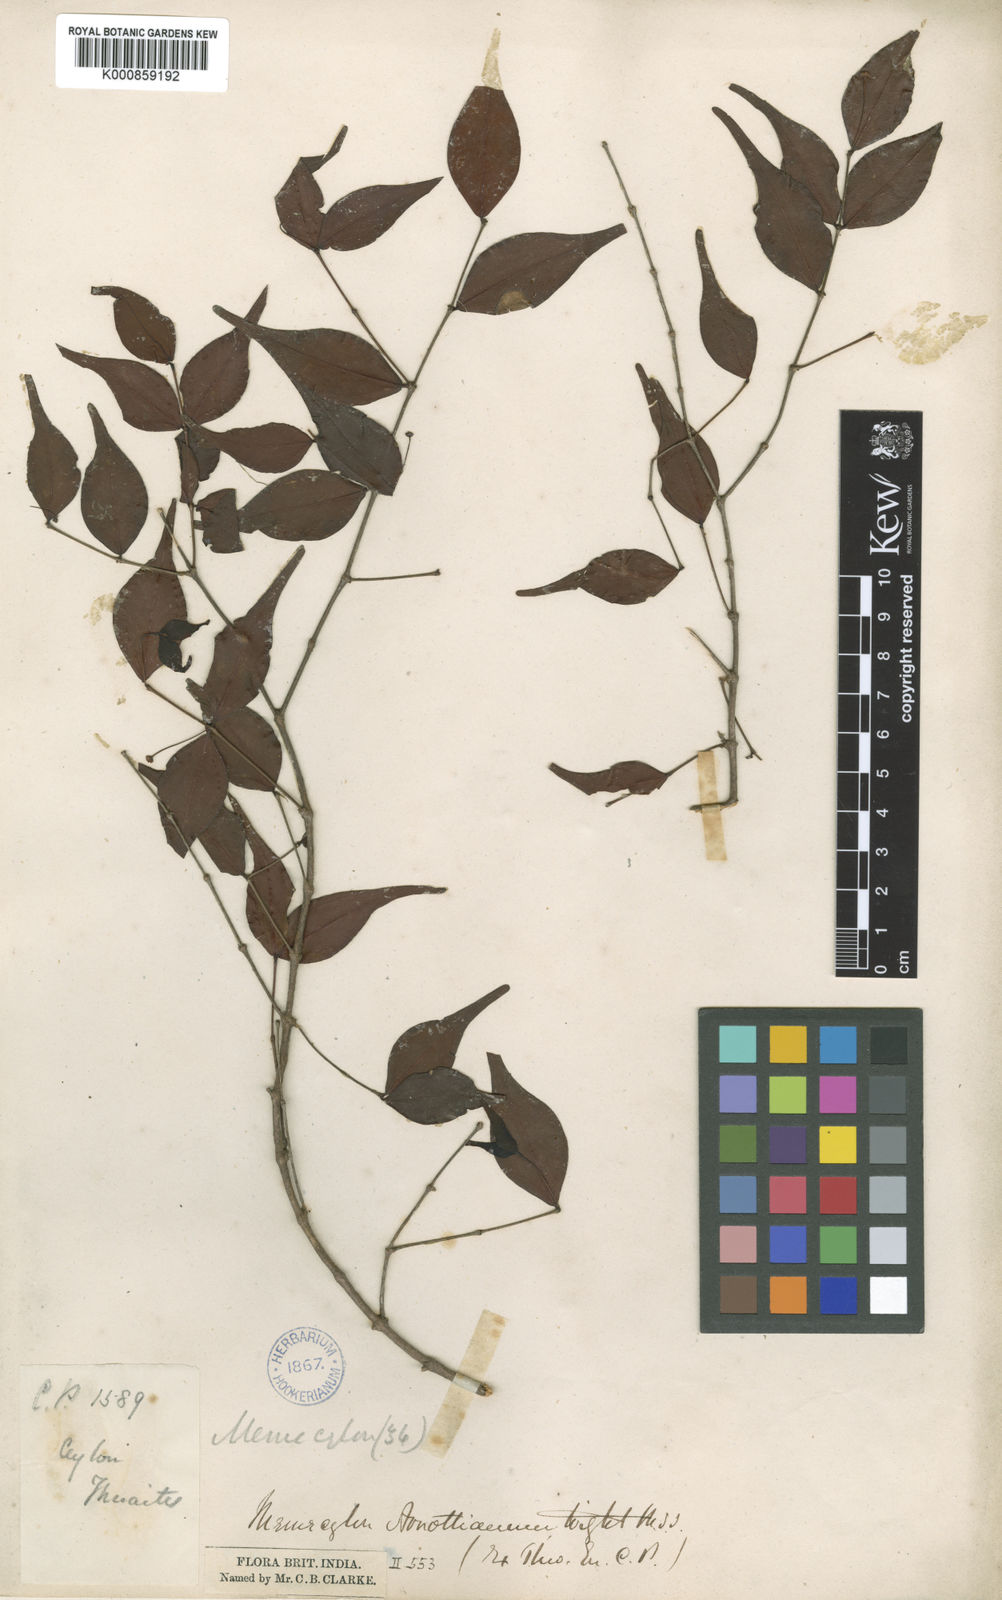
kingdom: Plantae
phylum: Tracheophyta
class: Magnoliopsida
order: Myrtales
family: Melastomataceae
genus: Lijndenia
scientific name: Lijndenia capitellata
